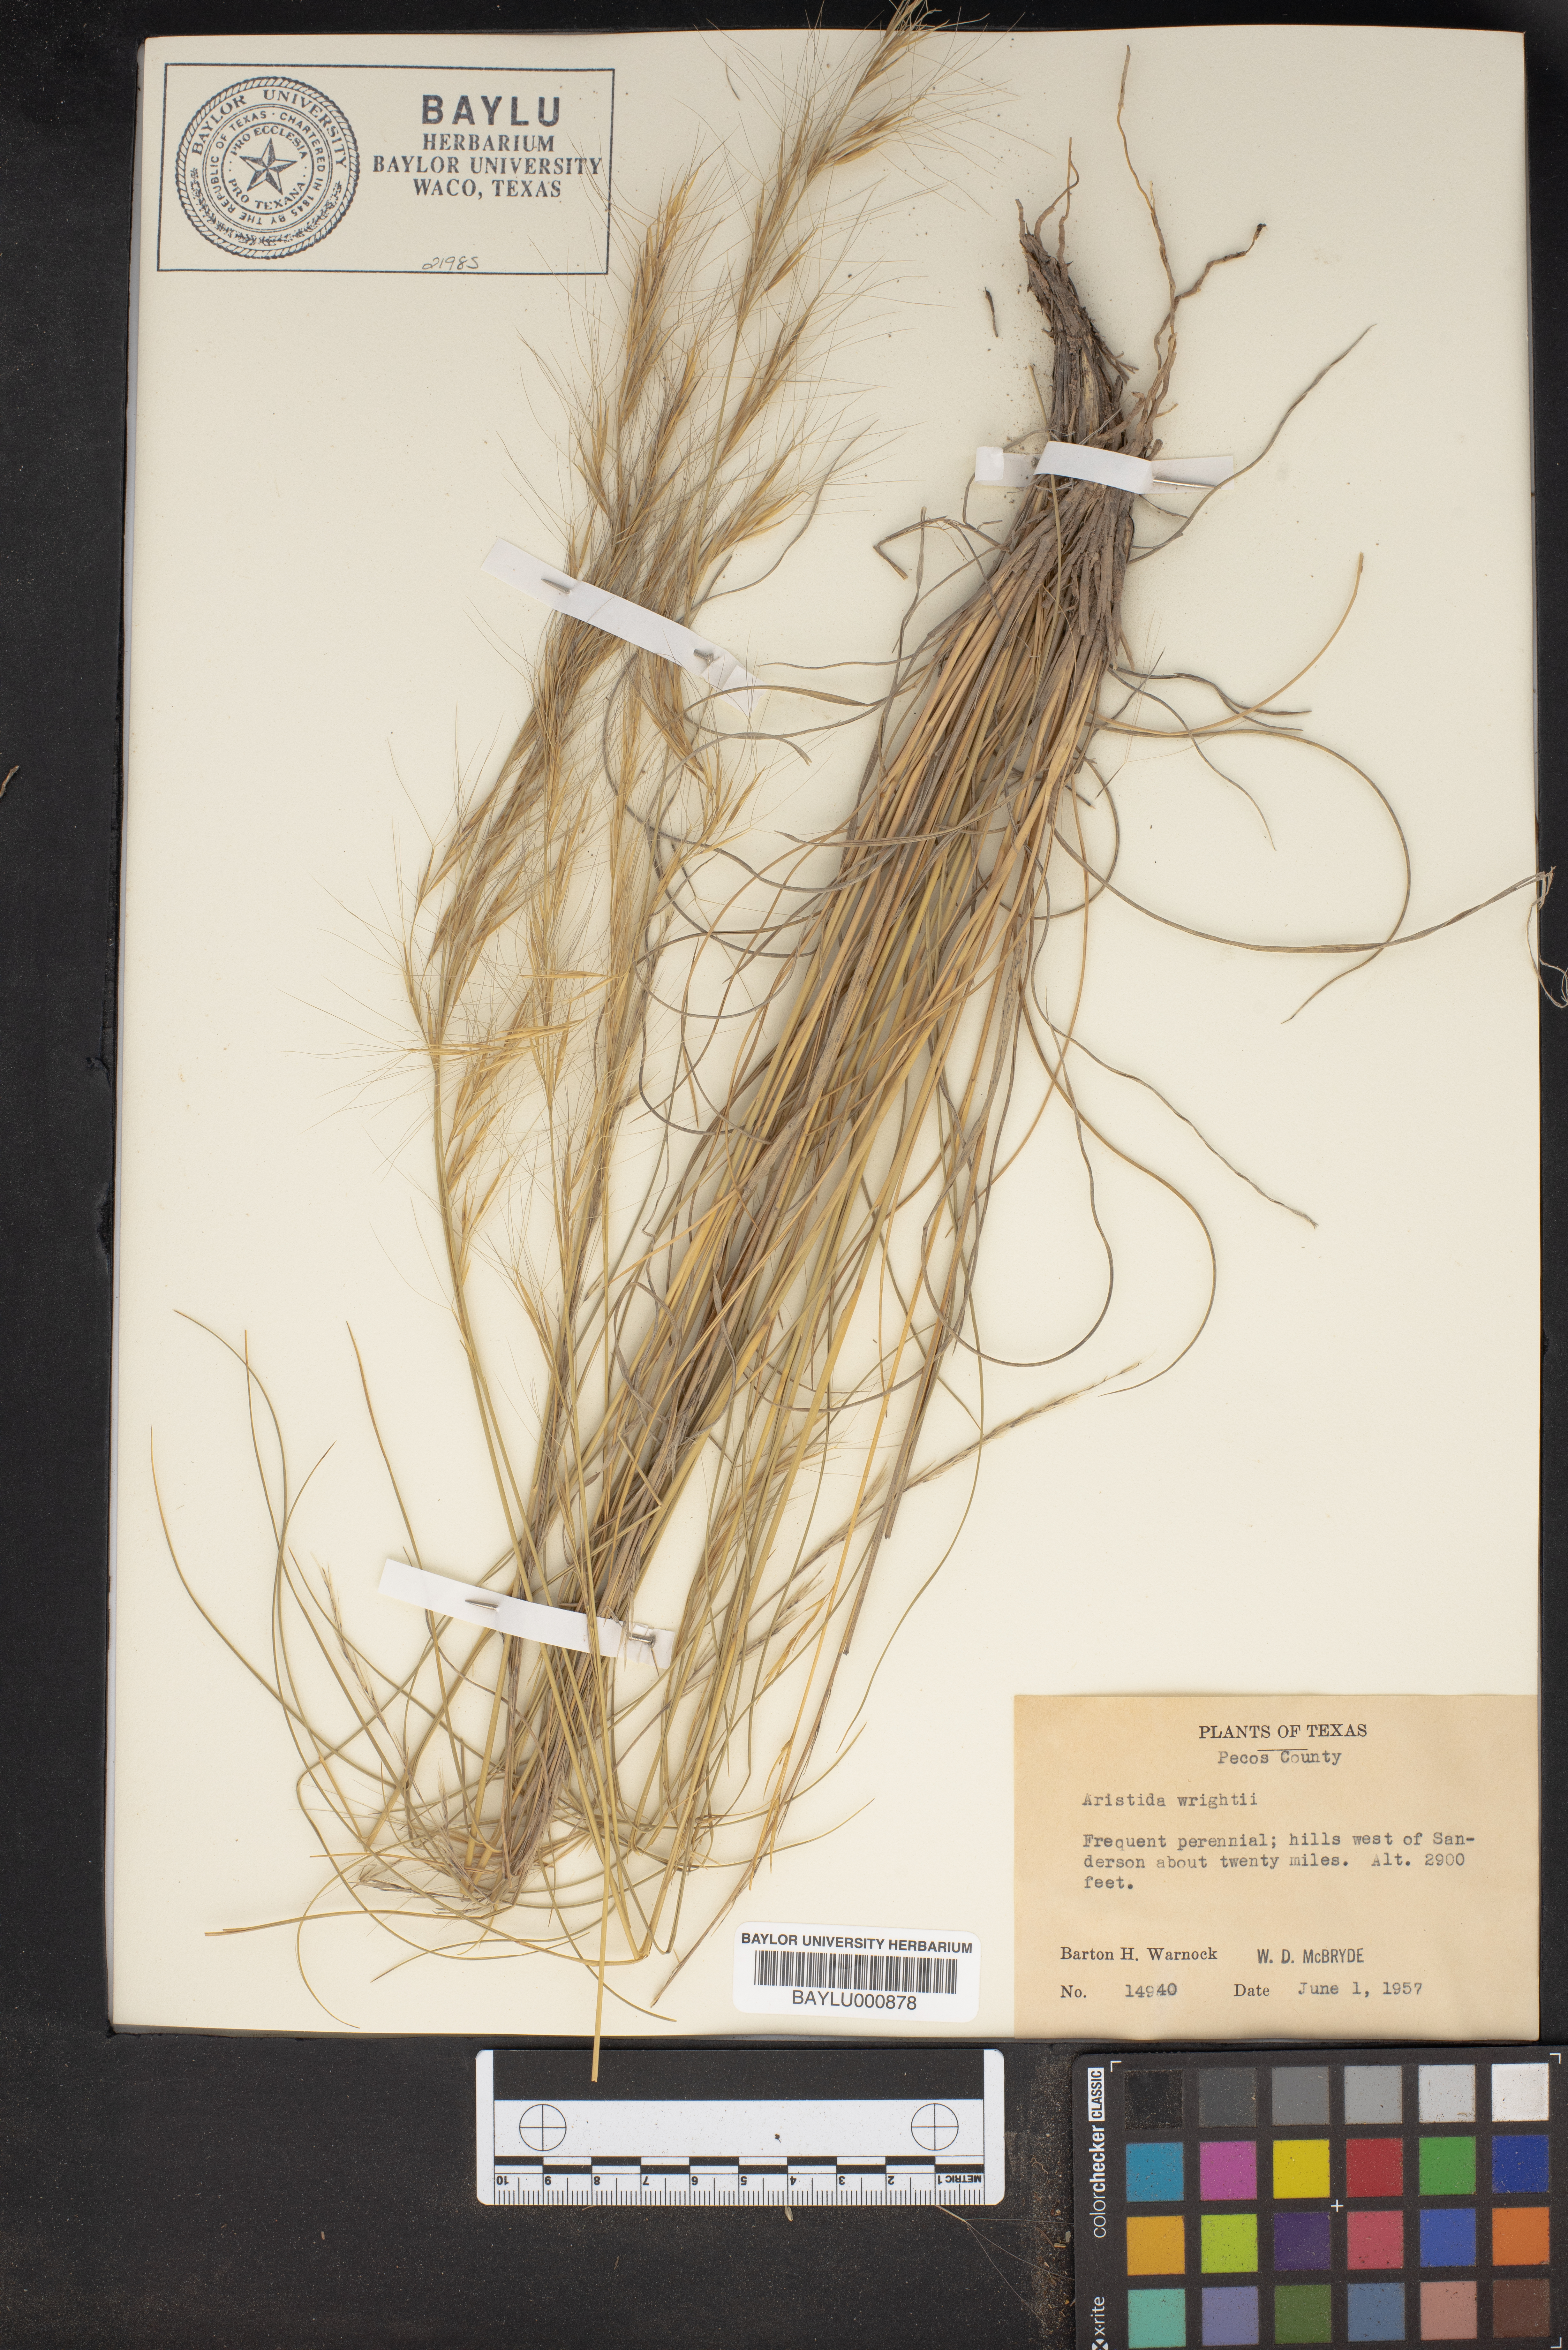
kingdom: Plantae
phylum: Tracheophyta
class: Liliopsida
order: Poales
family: Poaceae
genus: Aristida
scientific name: Aristida wrightii
